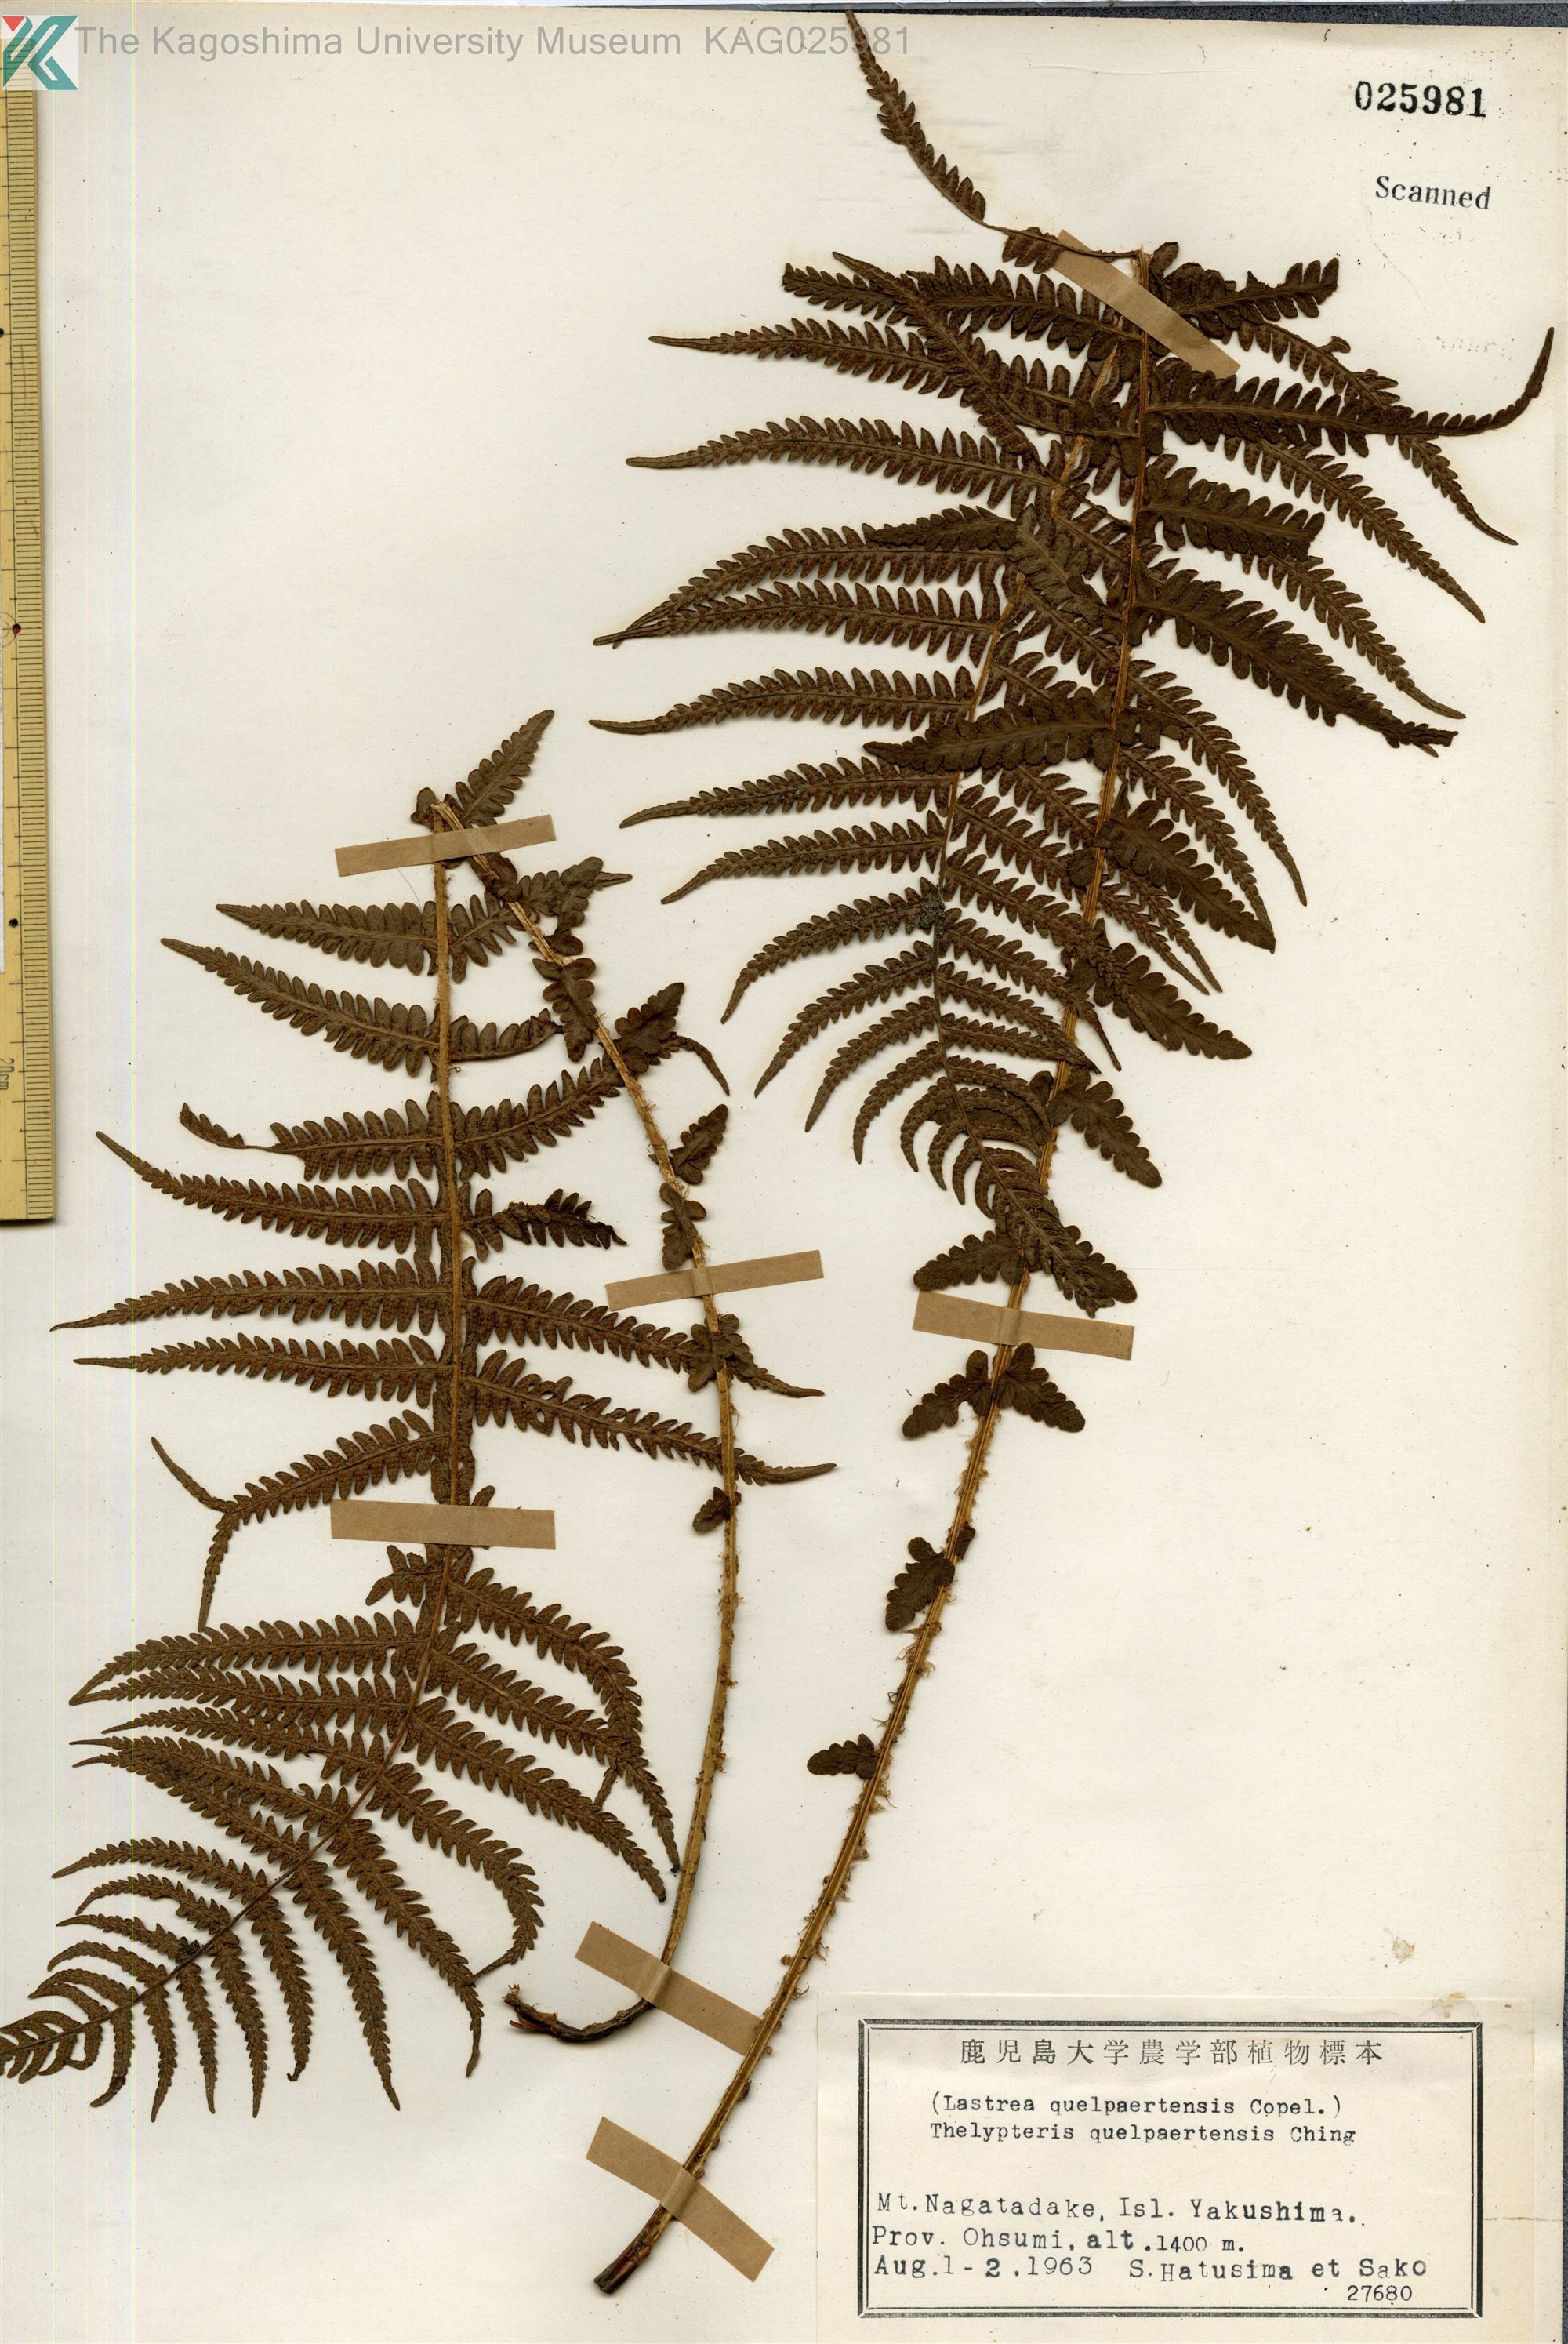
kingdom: Plantae
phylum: Tracheophyta
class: Polypodiopsida
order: Polypodiales
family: Thelypteridaceae
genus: Oreopteris
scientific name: Oreopteris quelpartensis
